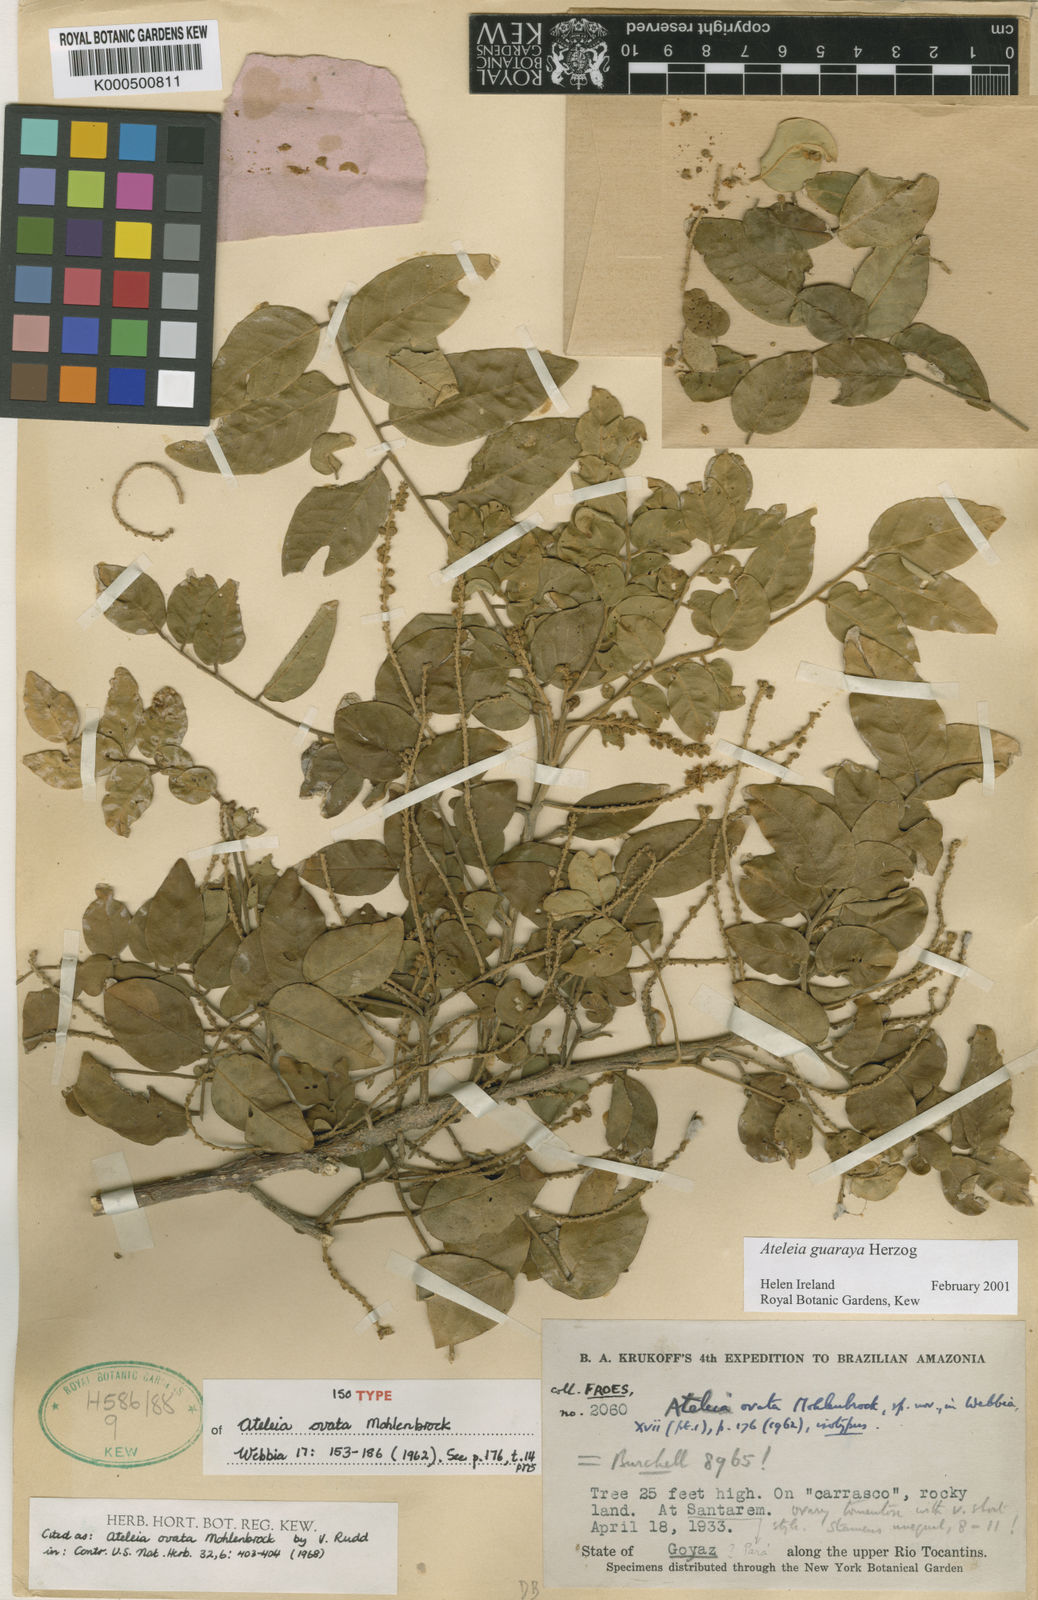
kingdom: Plantae
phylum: Tracheophyta
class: Magnoliopsida
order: Fabales
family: Fabaceae
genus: Ateleia
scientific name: Ateleia guaraya
